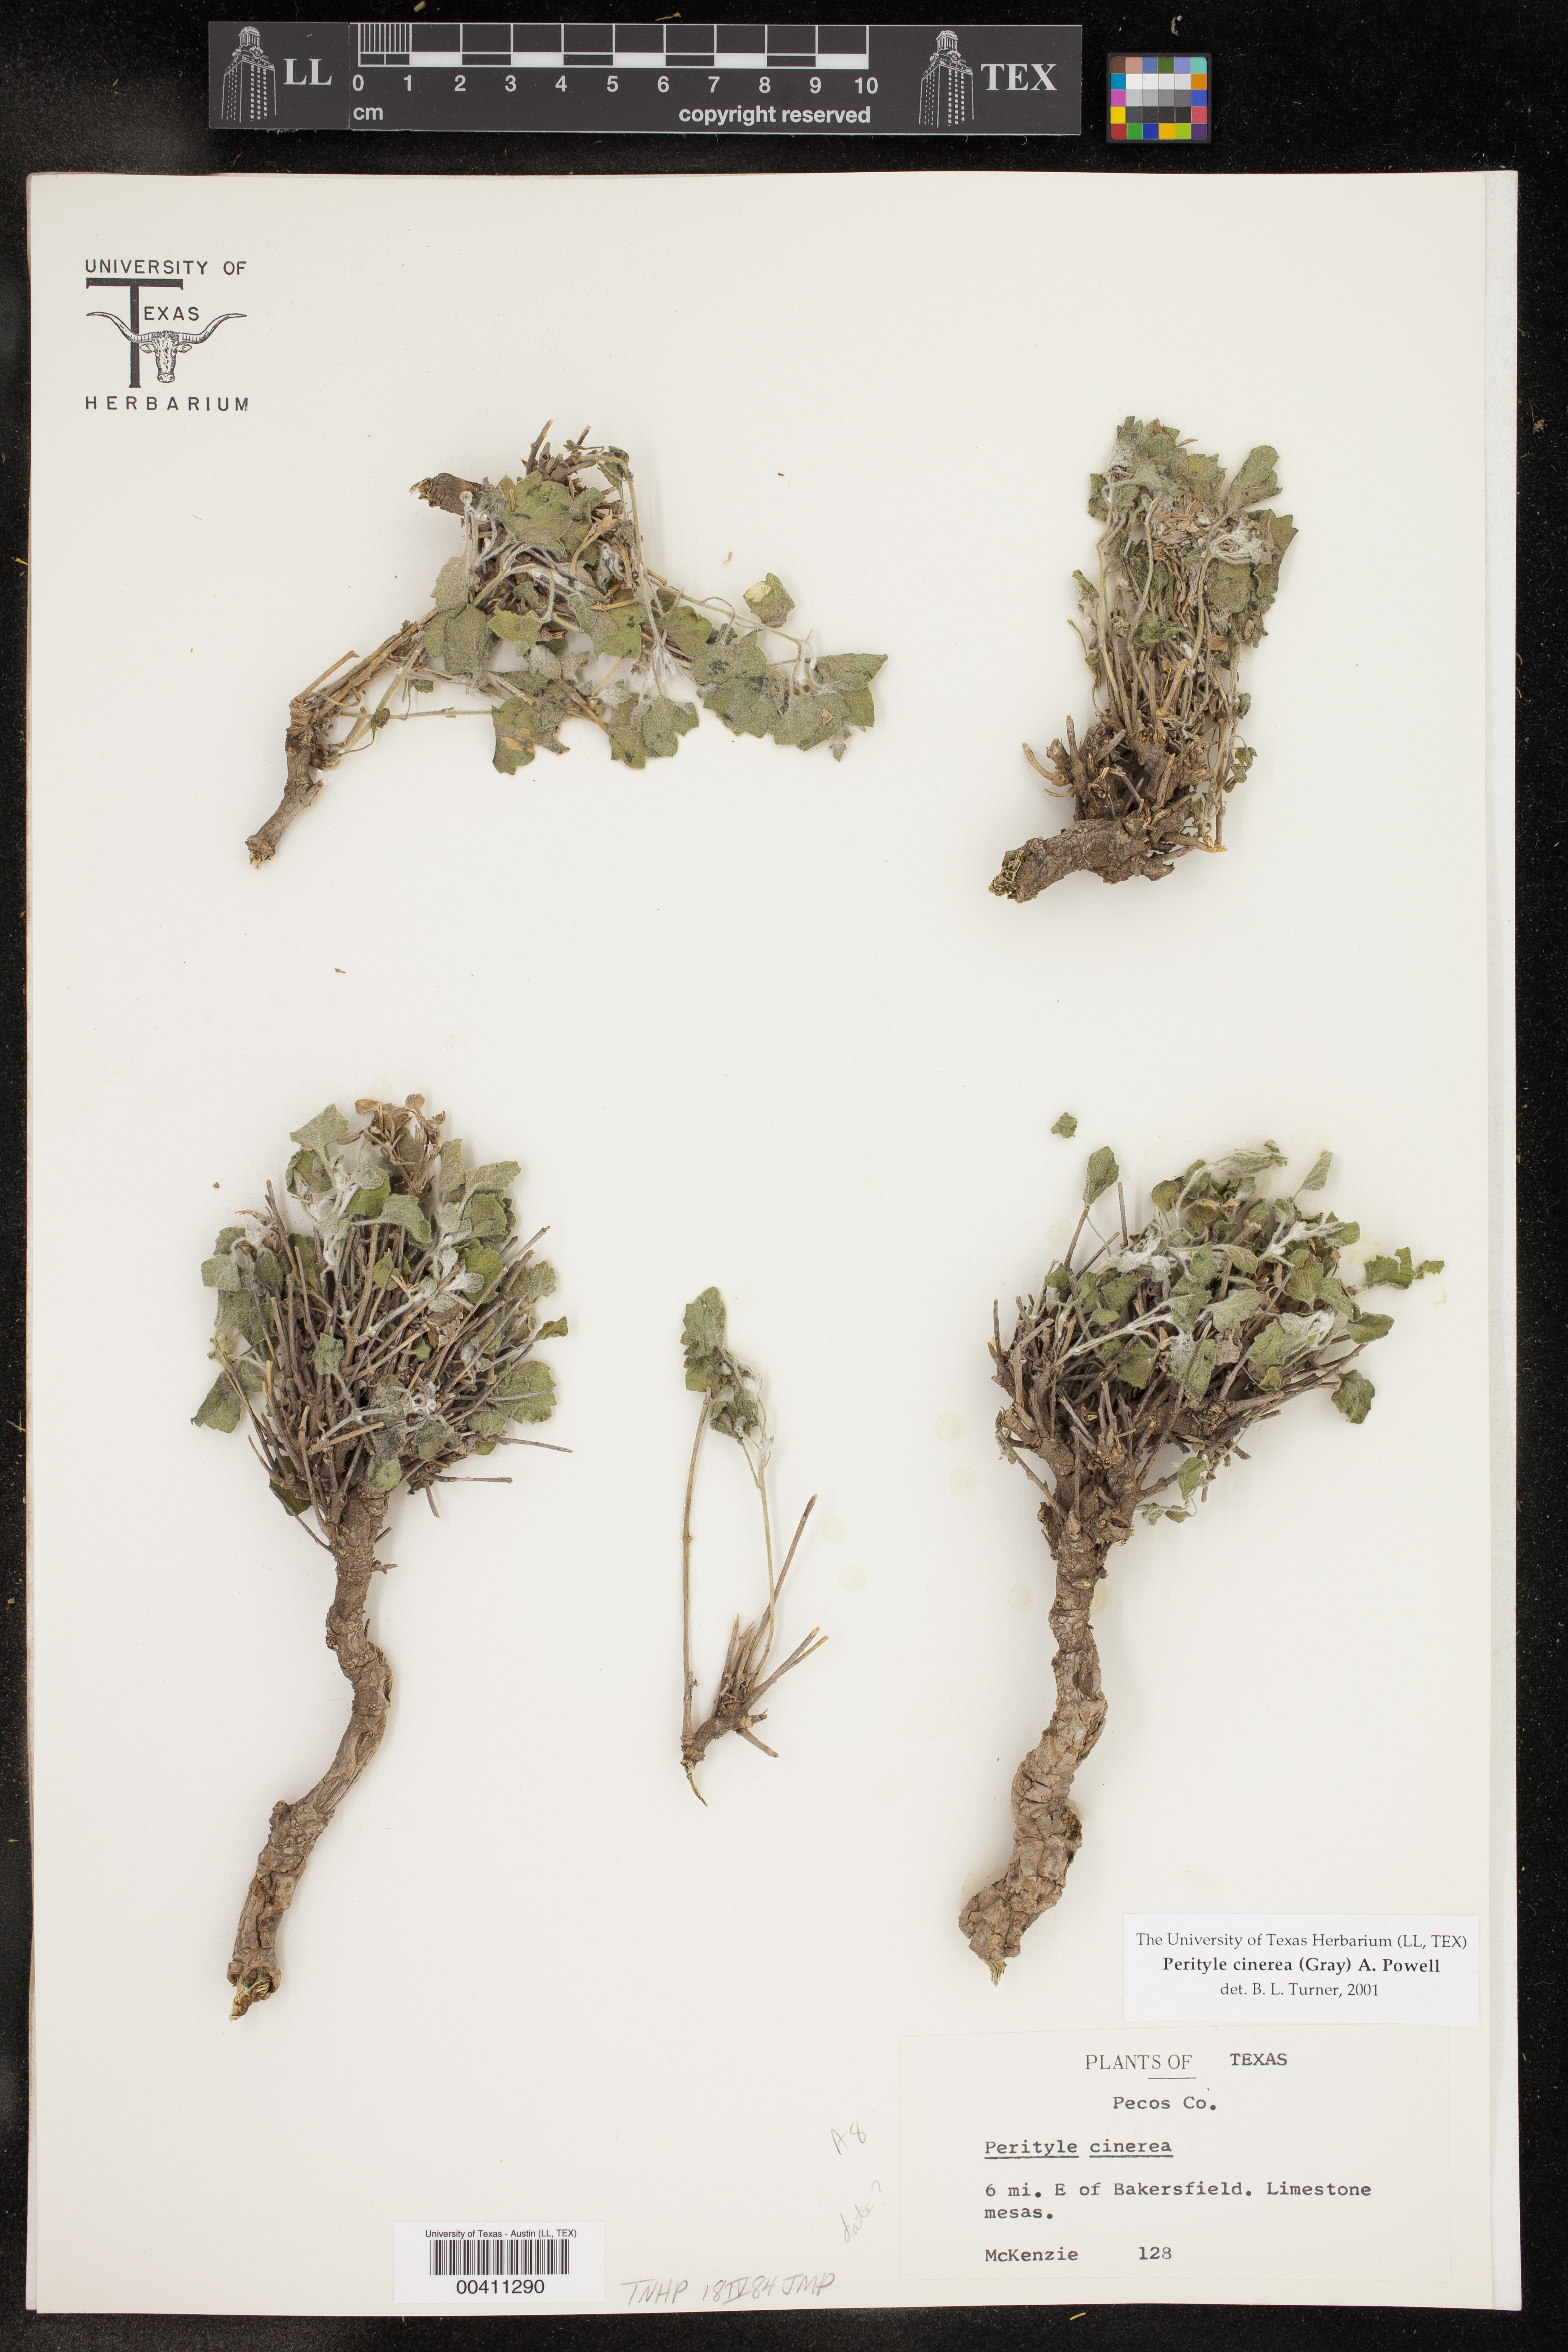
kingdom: Plantae
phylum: Tracheophyta
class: Magnoliopsida
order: Asterales
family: Asteraceae
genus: Laphamia
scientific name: Laphamia cinerea
